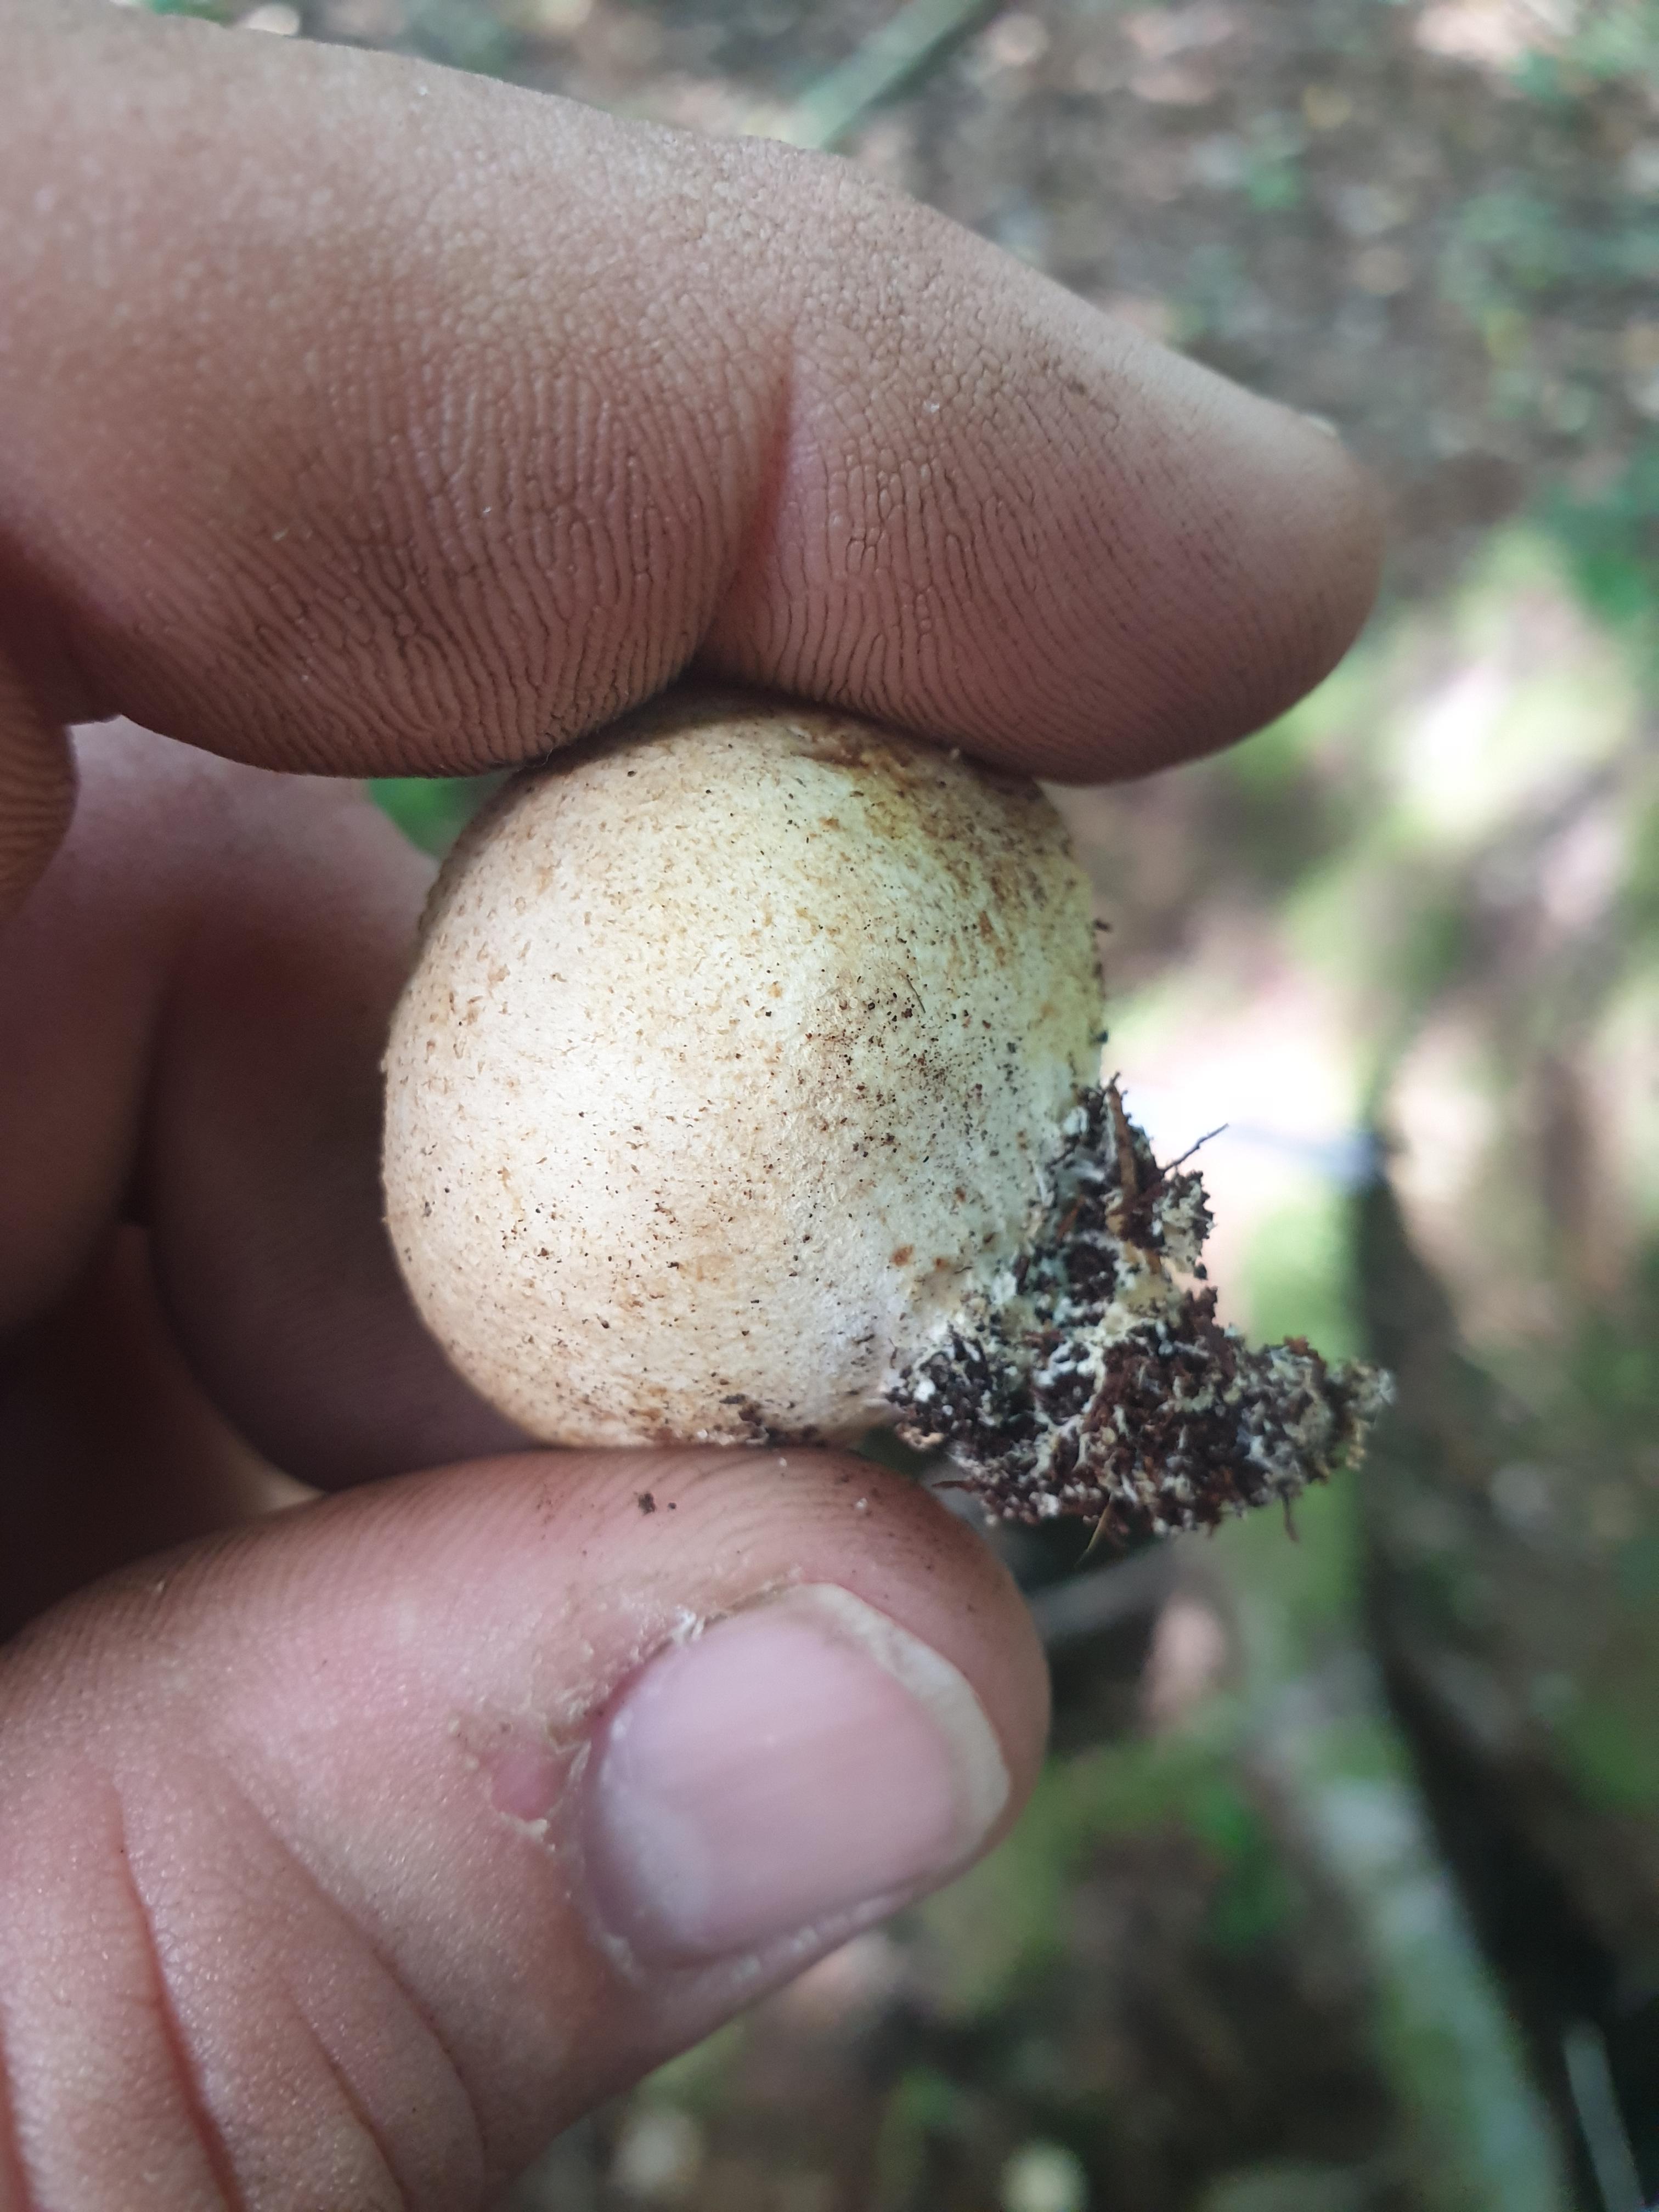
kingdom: Fungi
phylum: Basidiomycota
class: Agaricomycetes
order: Boletales
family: Sclerodermataceae
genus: Scleroderma
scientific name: Scleroderma citrinum
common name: almindelig bruskbold
